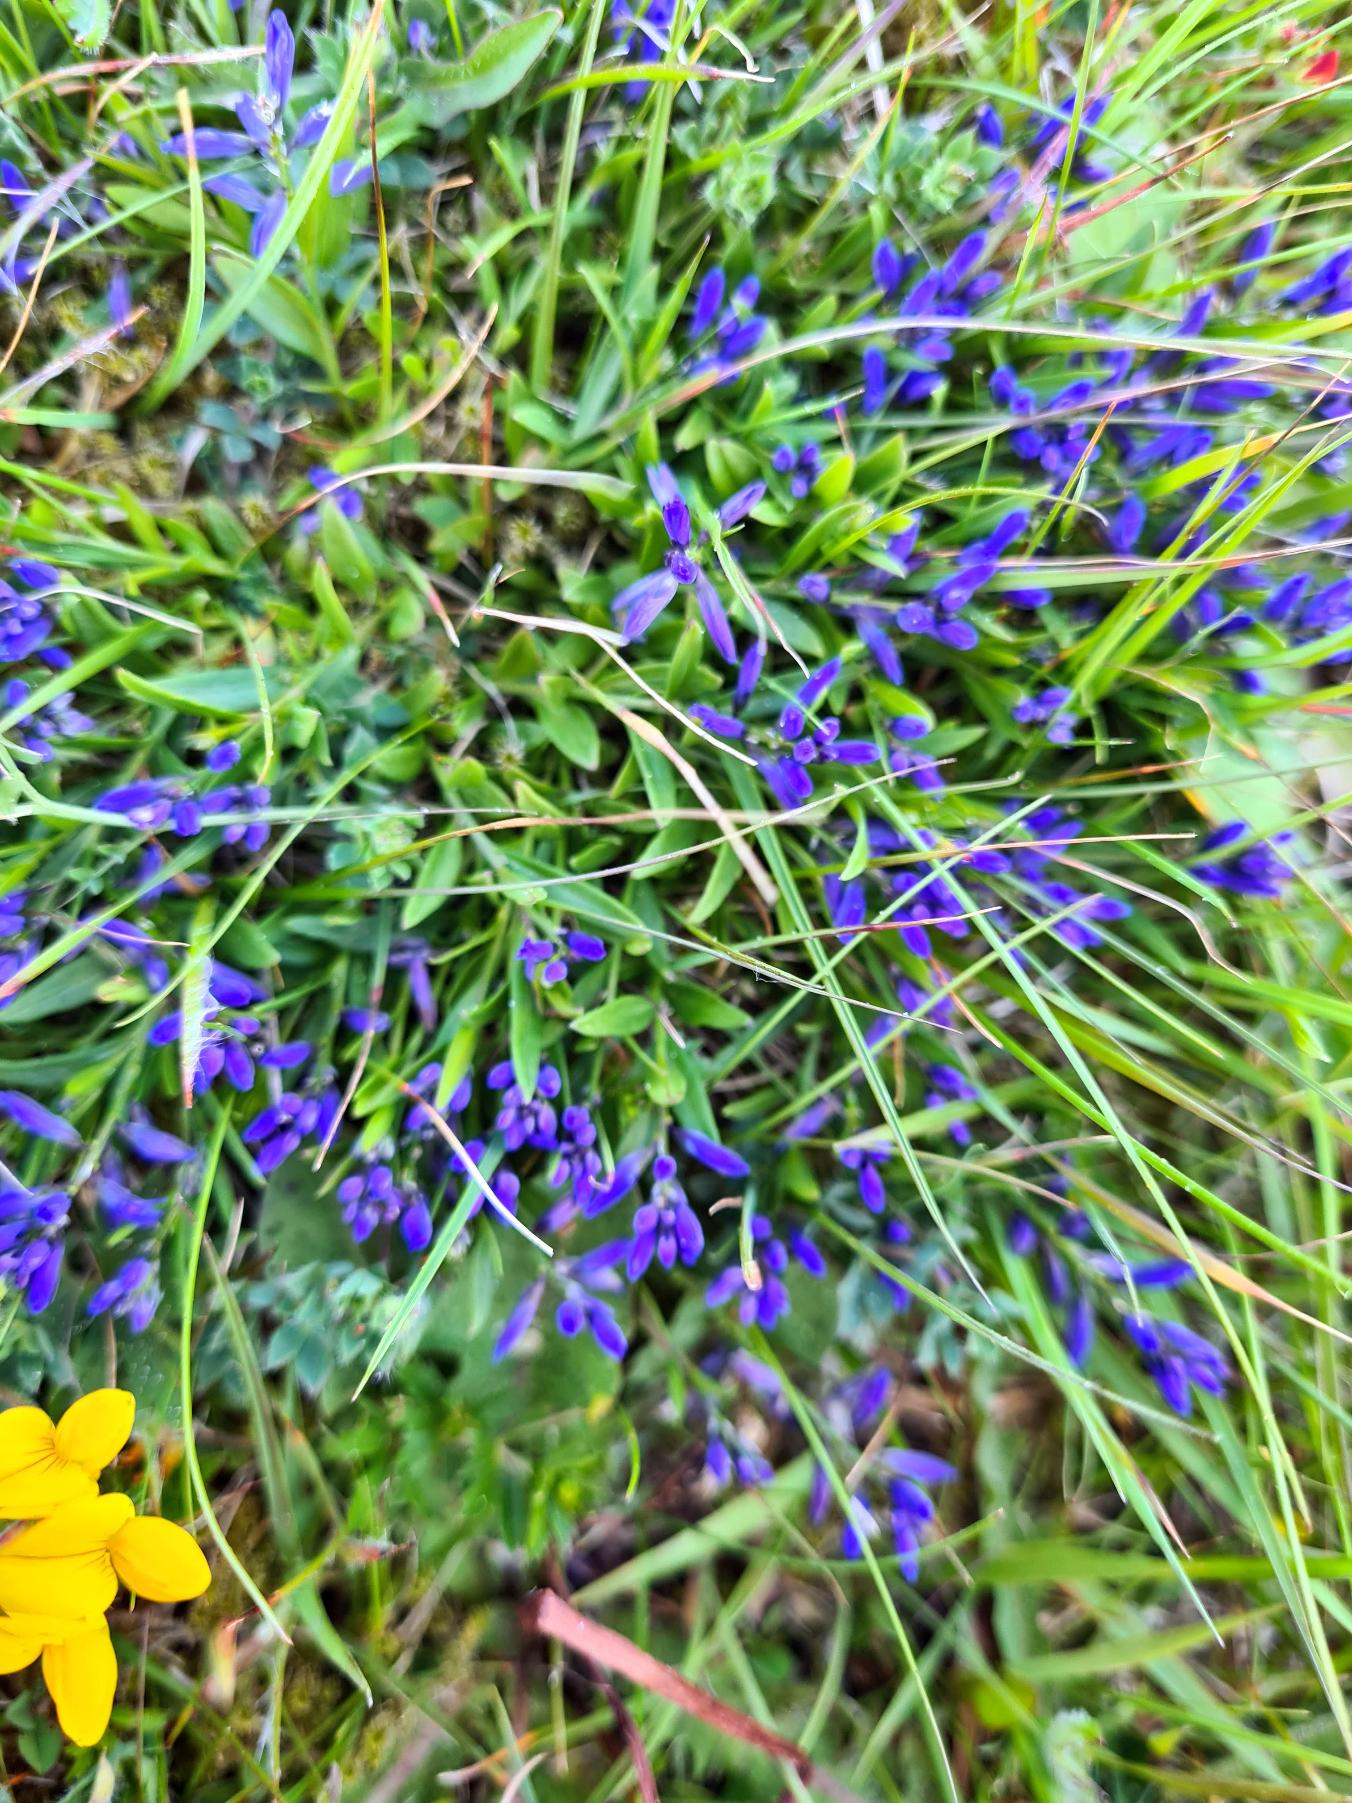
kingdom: Plantae
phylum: Tracheophyta
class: Magnoliopsida
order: Fabales
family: Polygalaceae
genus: Polygala
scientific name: Polygala vulgaris
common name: Almindelig mælkeurt
